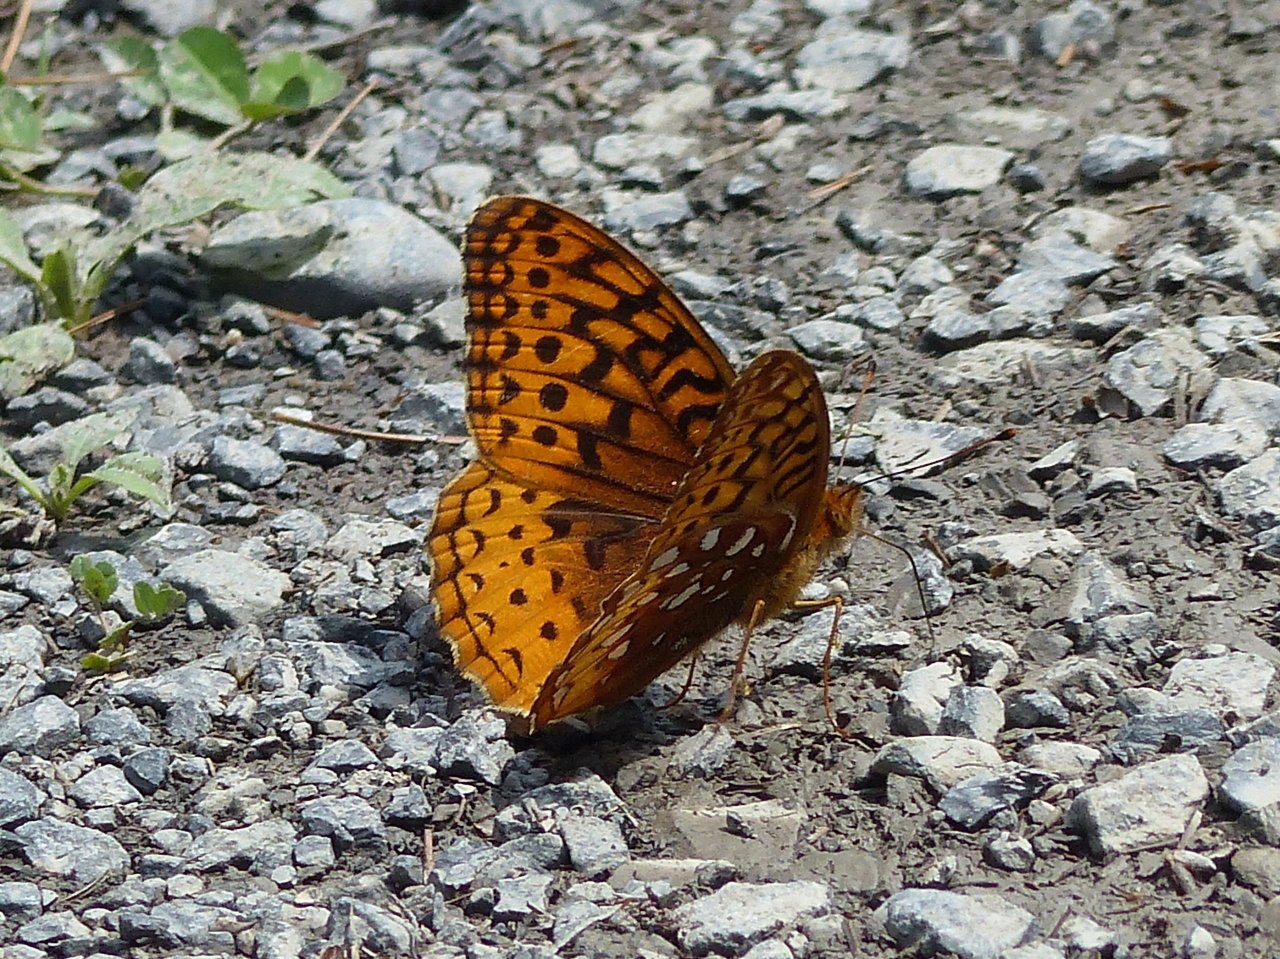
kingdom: Animalia
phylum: Arthropoda
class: Insecta
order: Lepidoptera
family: Nymphalidae
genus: Speyeria
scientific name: Speyeria cybele
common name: Great Spangled Fritillary
